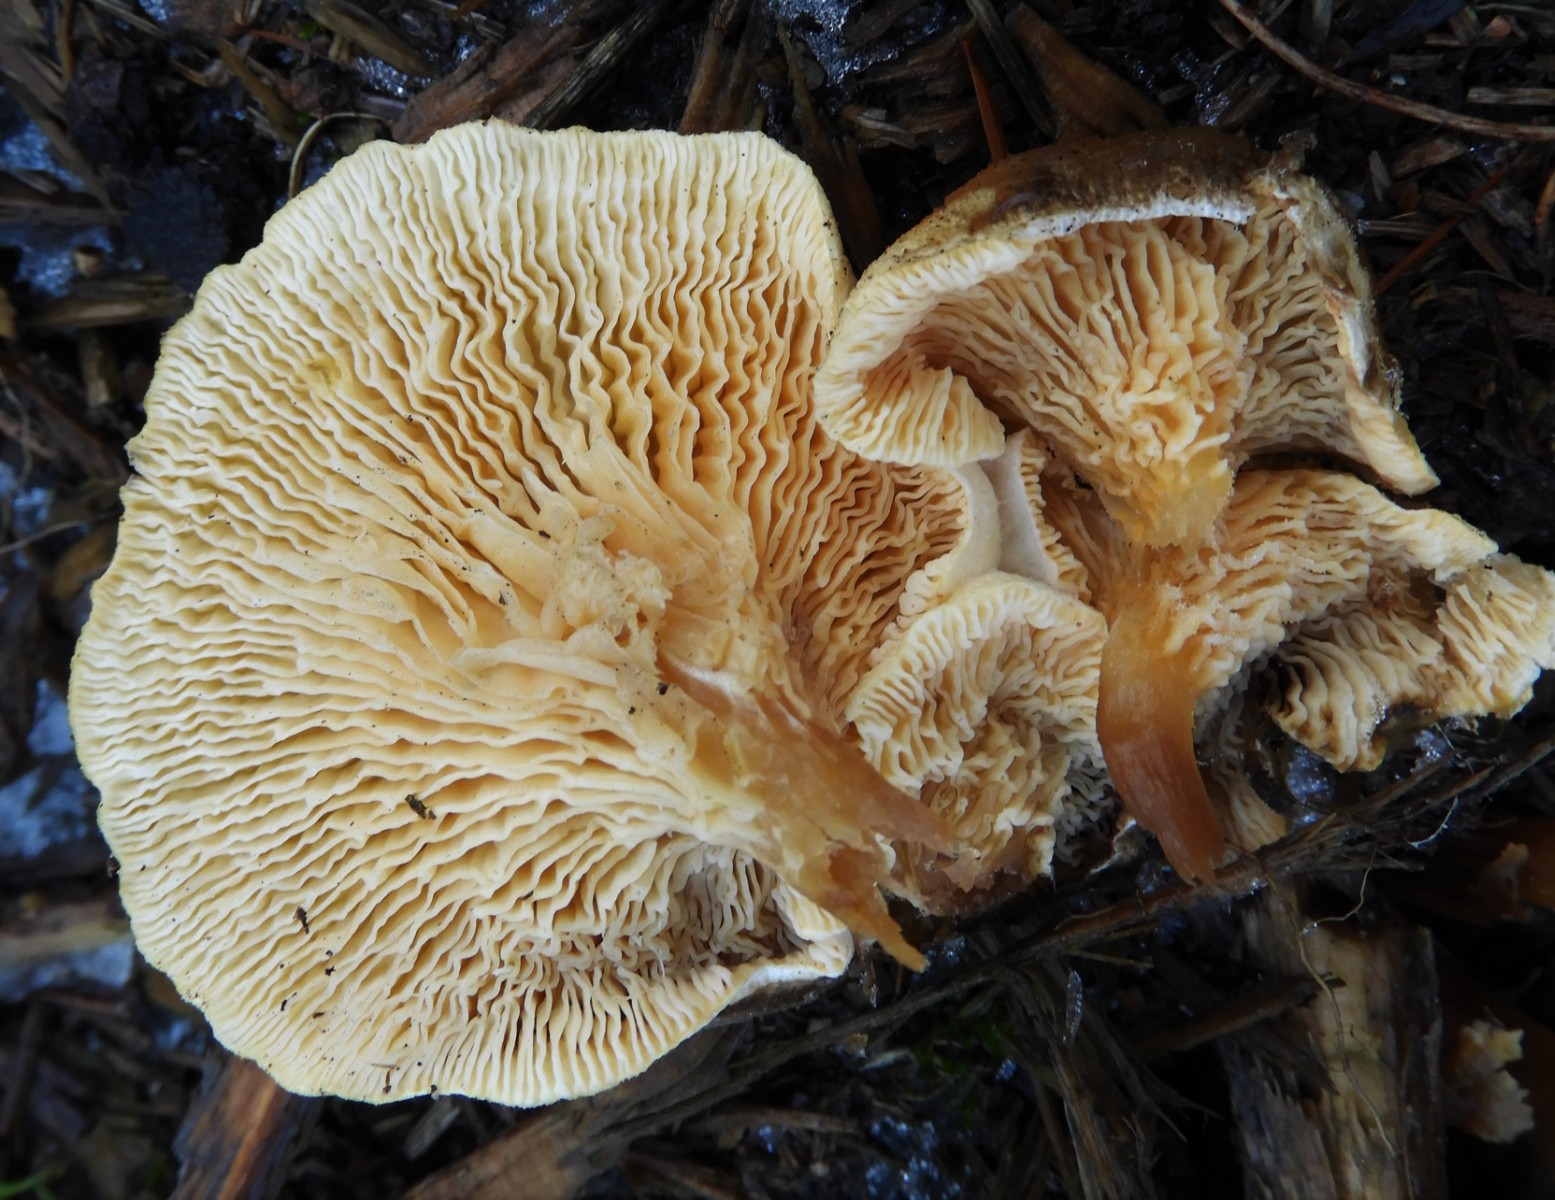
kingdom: Fungi
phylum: Basidiomycota
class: Agaricomycetes
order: Boletales
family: Hygrophoropsidaceae
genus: Hygrophoropsis
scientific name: Hygrophoropsis aurantiaca
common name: almindelig orangekantarel
